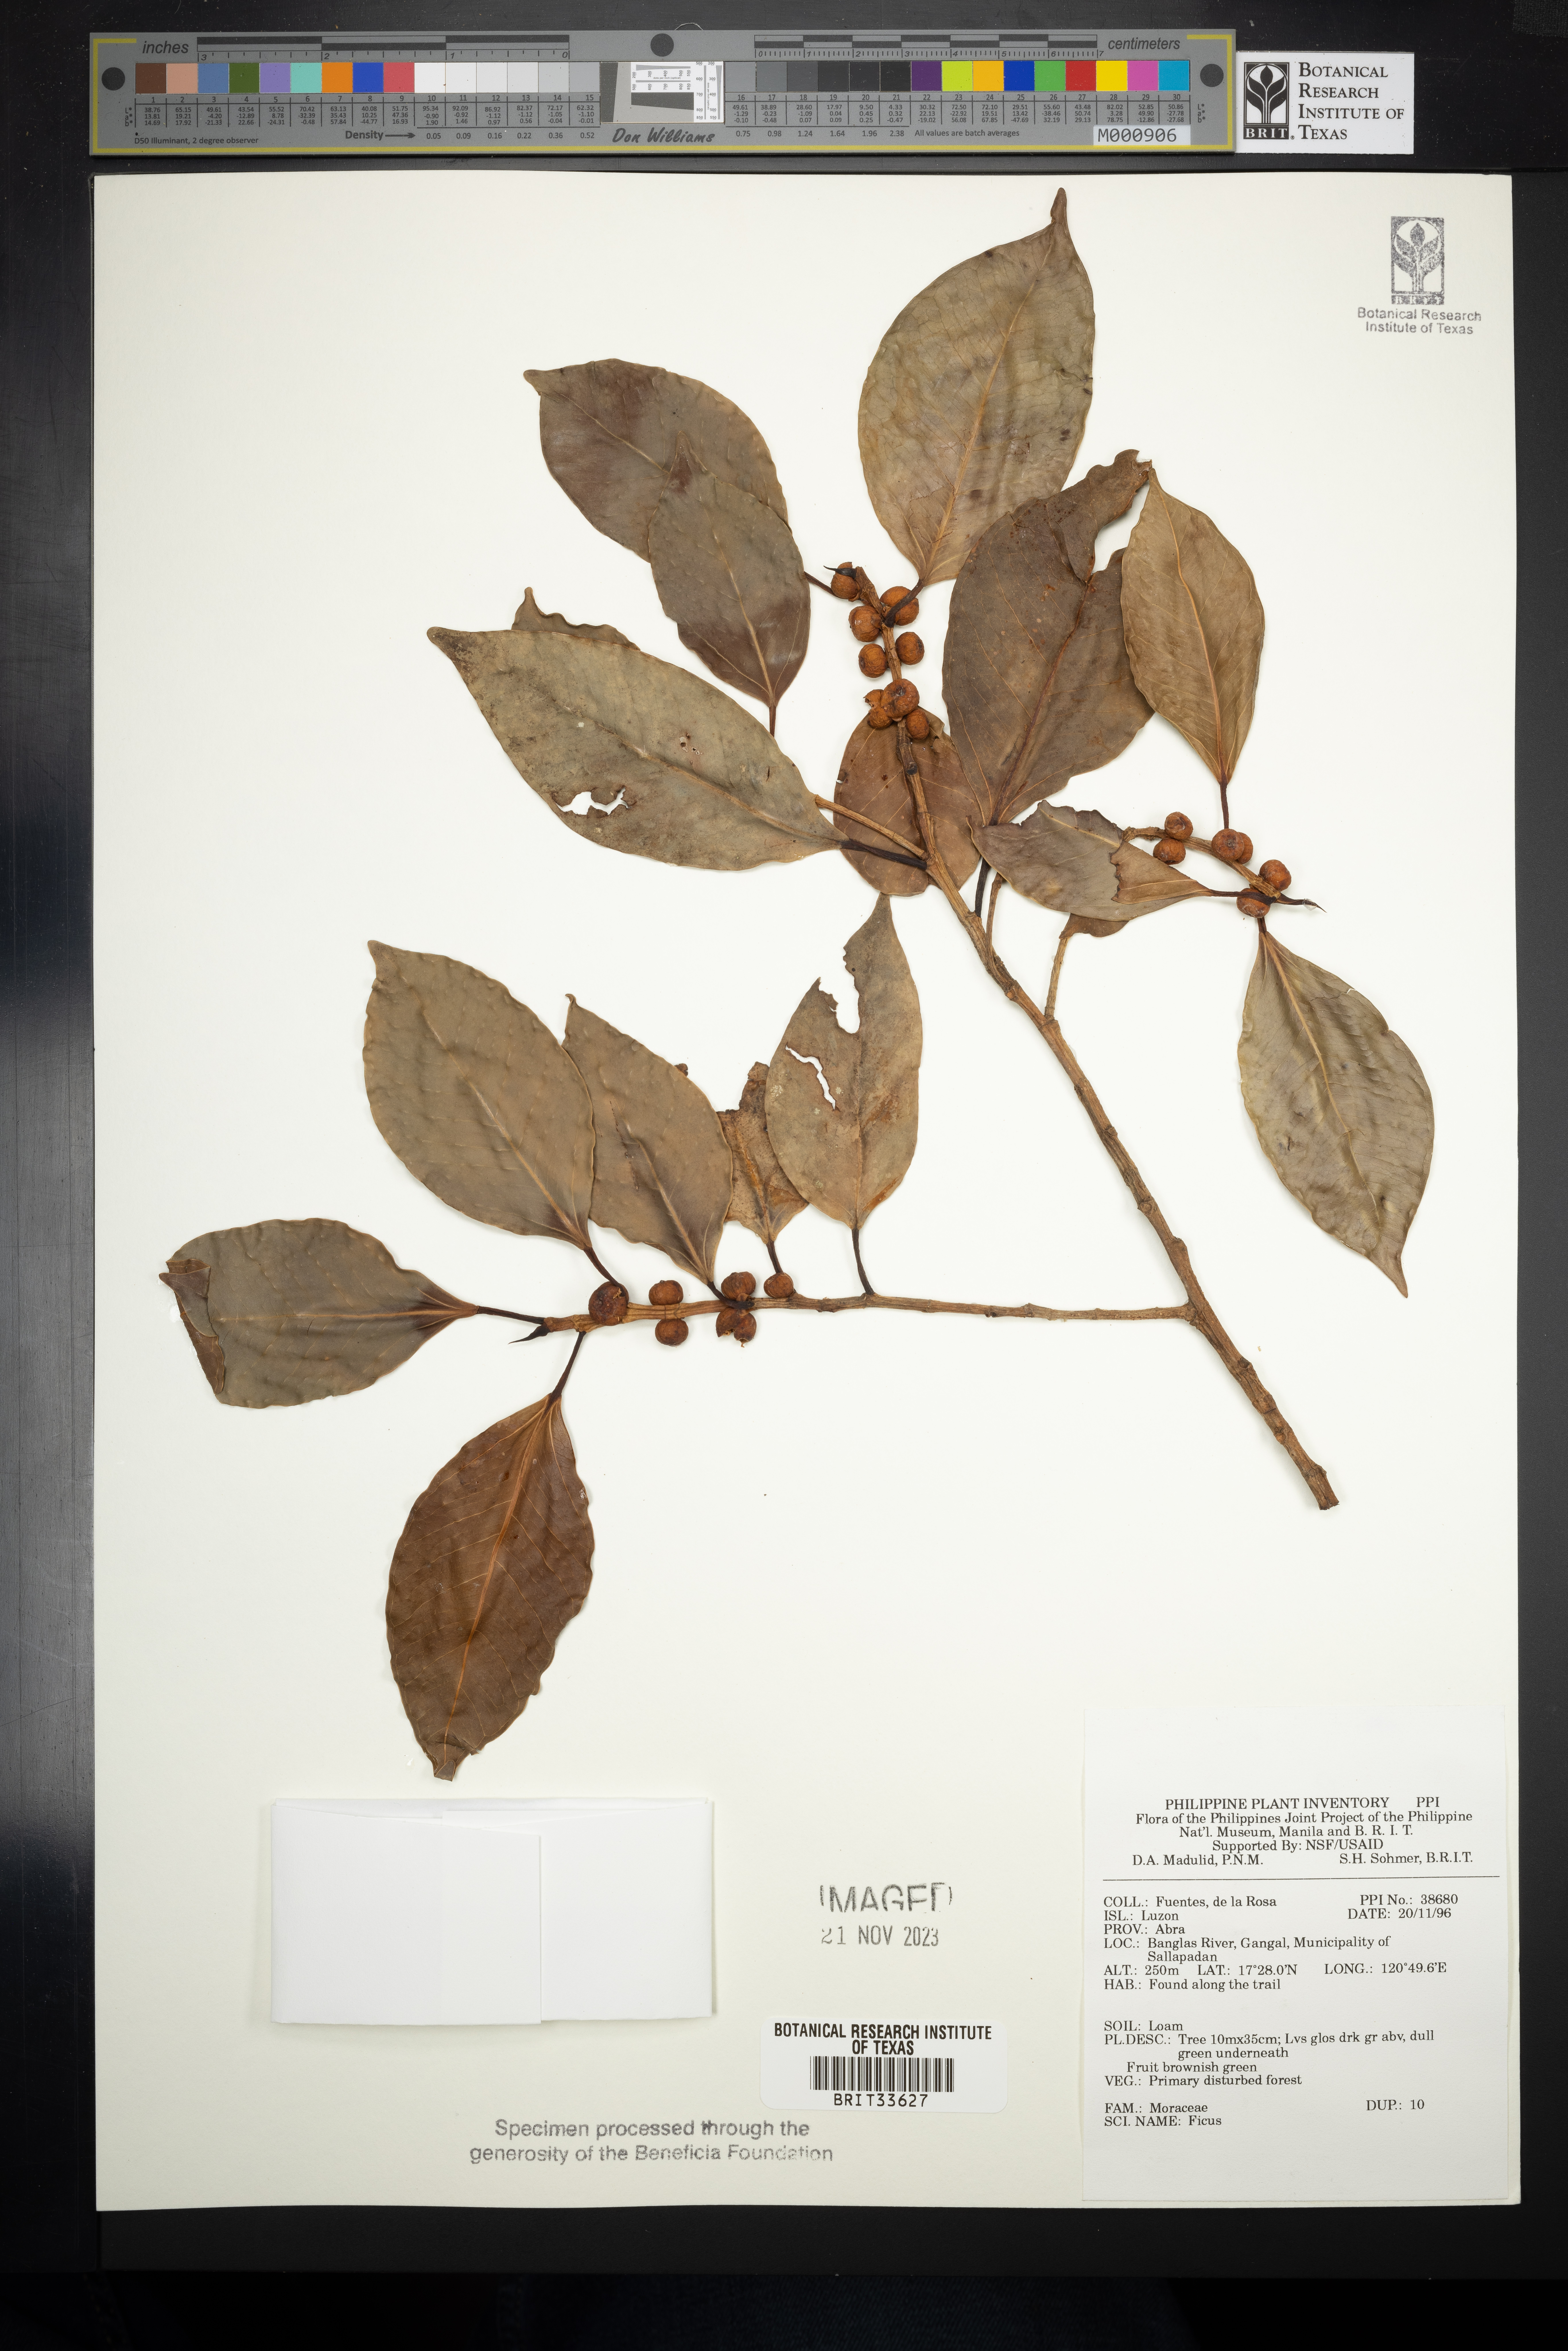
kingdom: Plantae
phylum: Tracheophyta
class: Magnoliopsida
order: Rosales
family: Moraceae
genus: Ficus
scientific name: Ficus
